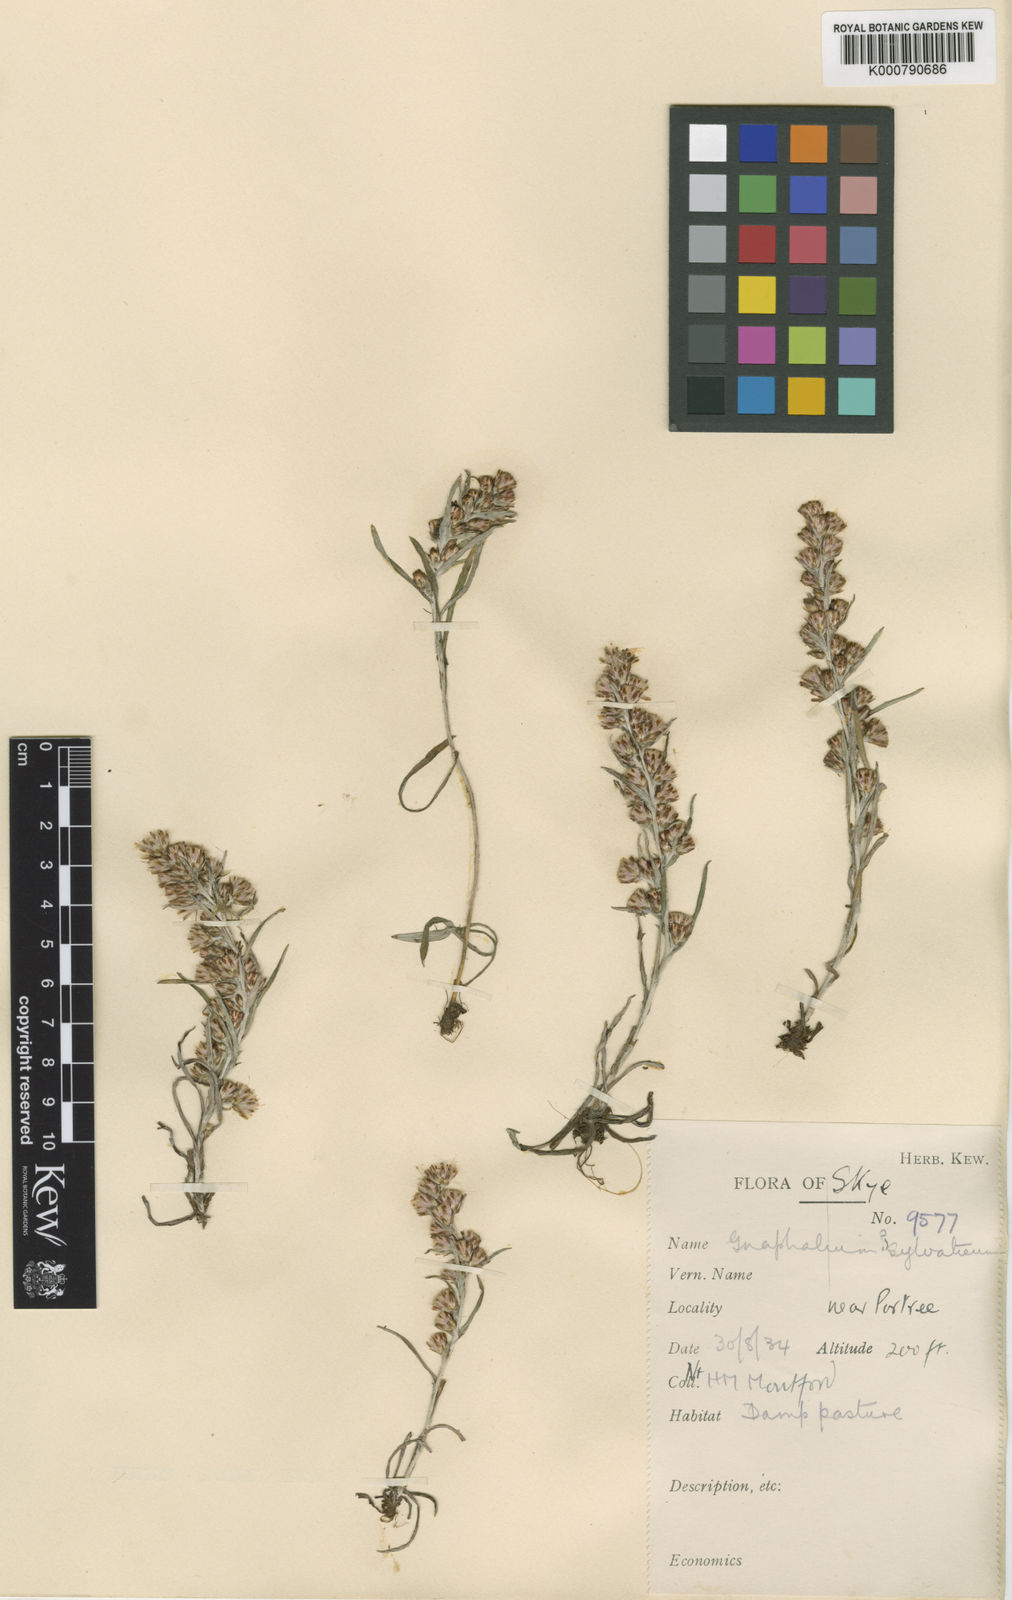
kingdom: Plantae
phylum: Tracheophyta
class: Magnoliopsida
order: Asterales
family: Asteraceae
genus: Omalotheca
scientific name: Omalotheca sylvatica
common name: Heath cudweed
